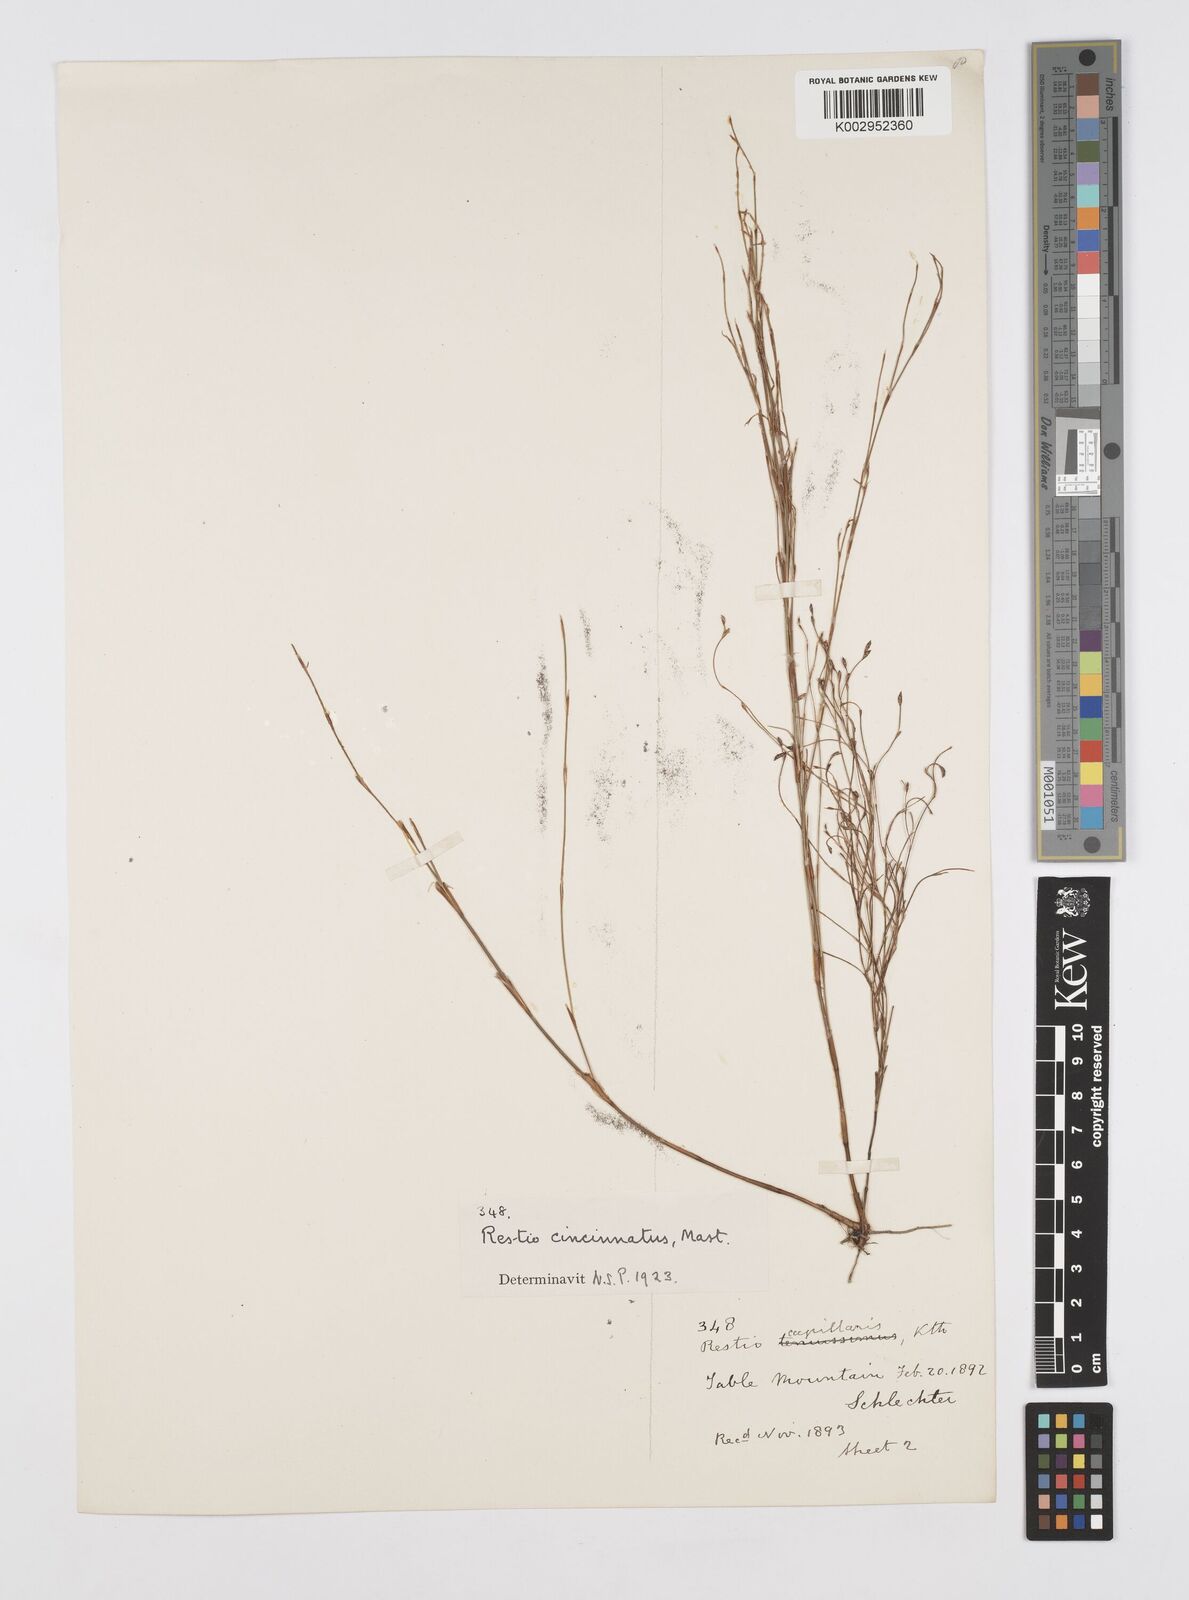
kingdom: Plantae
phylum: Tracheophyta
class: Liliopsida
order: Poales
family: Restionaceae
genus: Restio
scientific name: Restio cincinnatus
